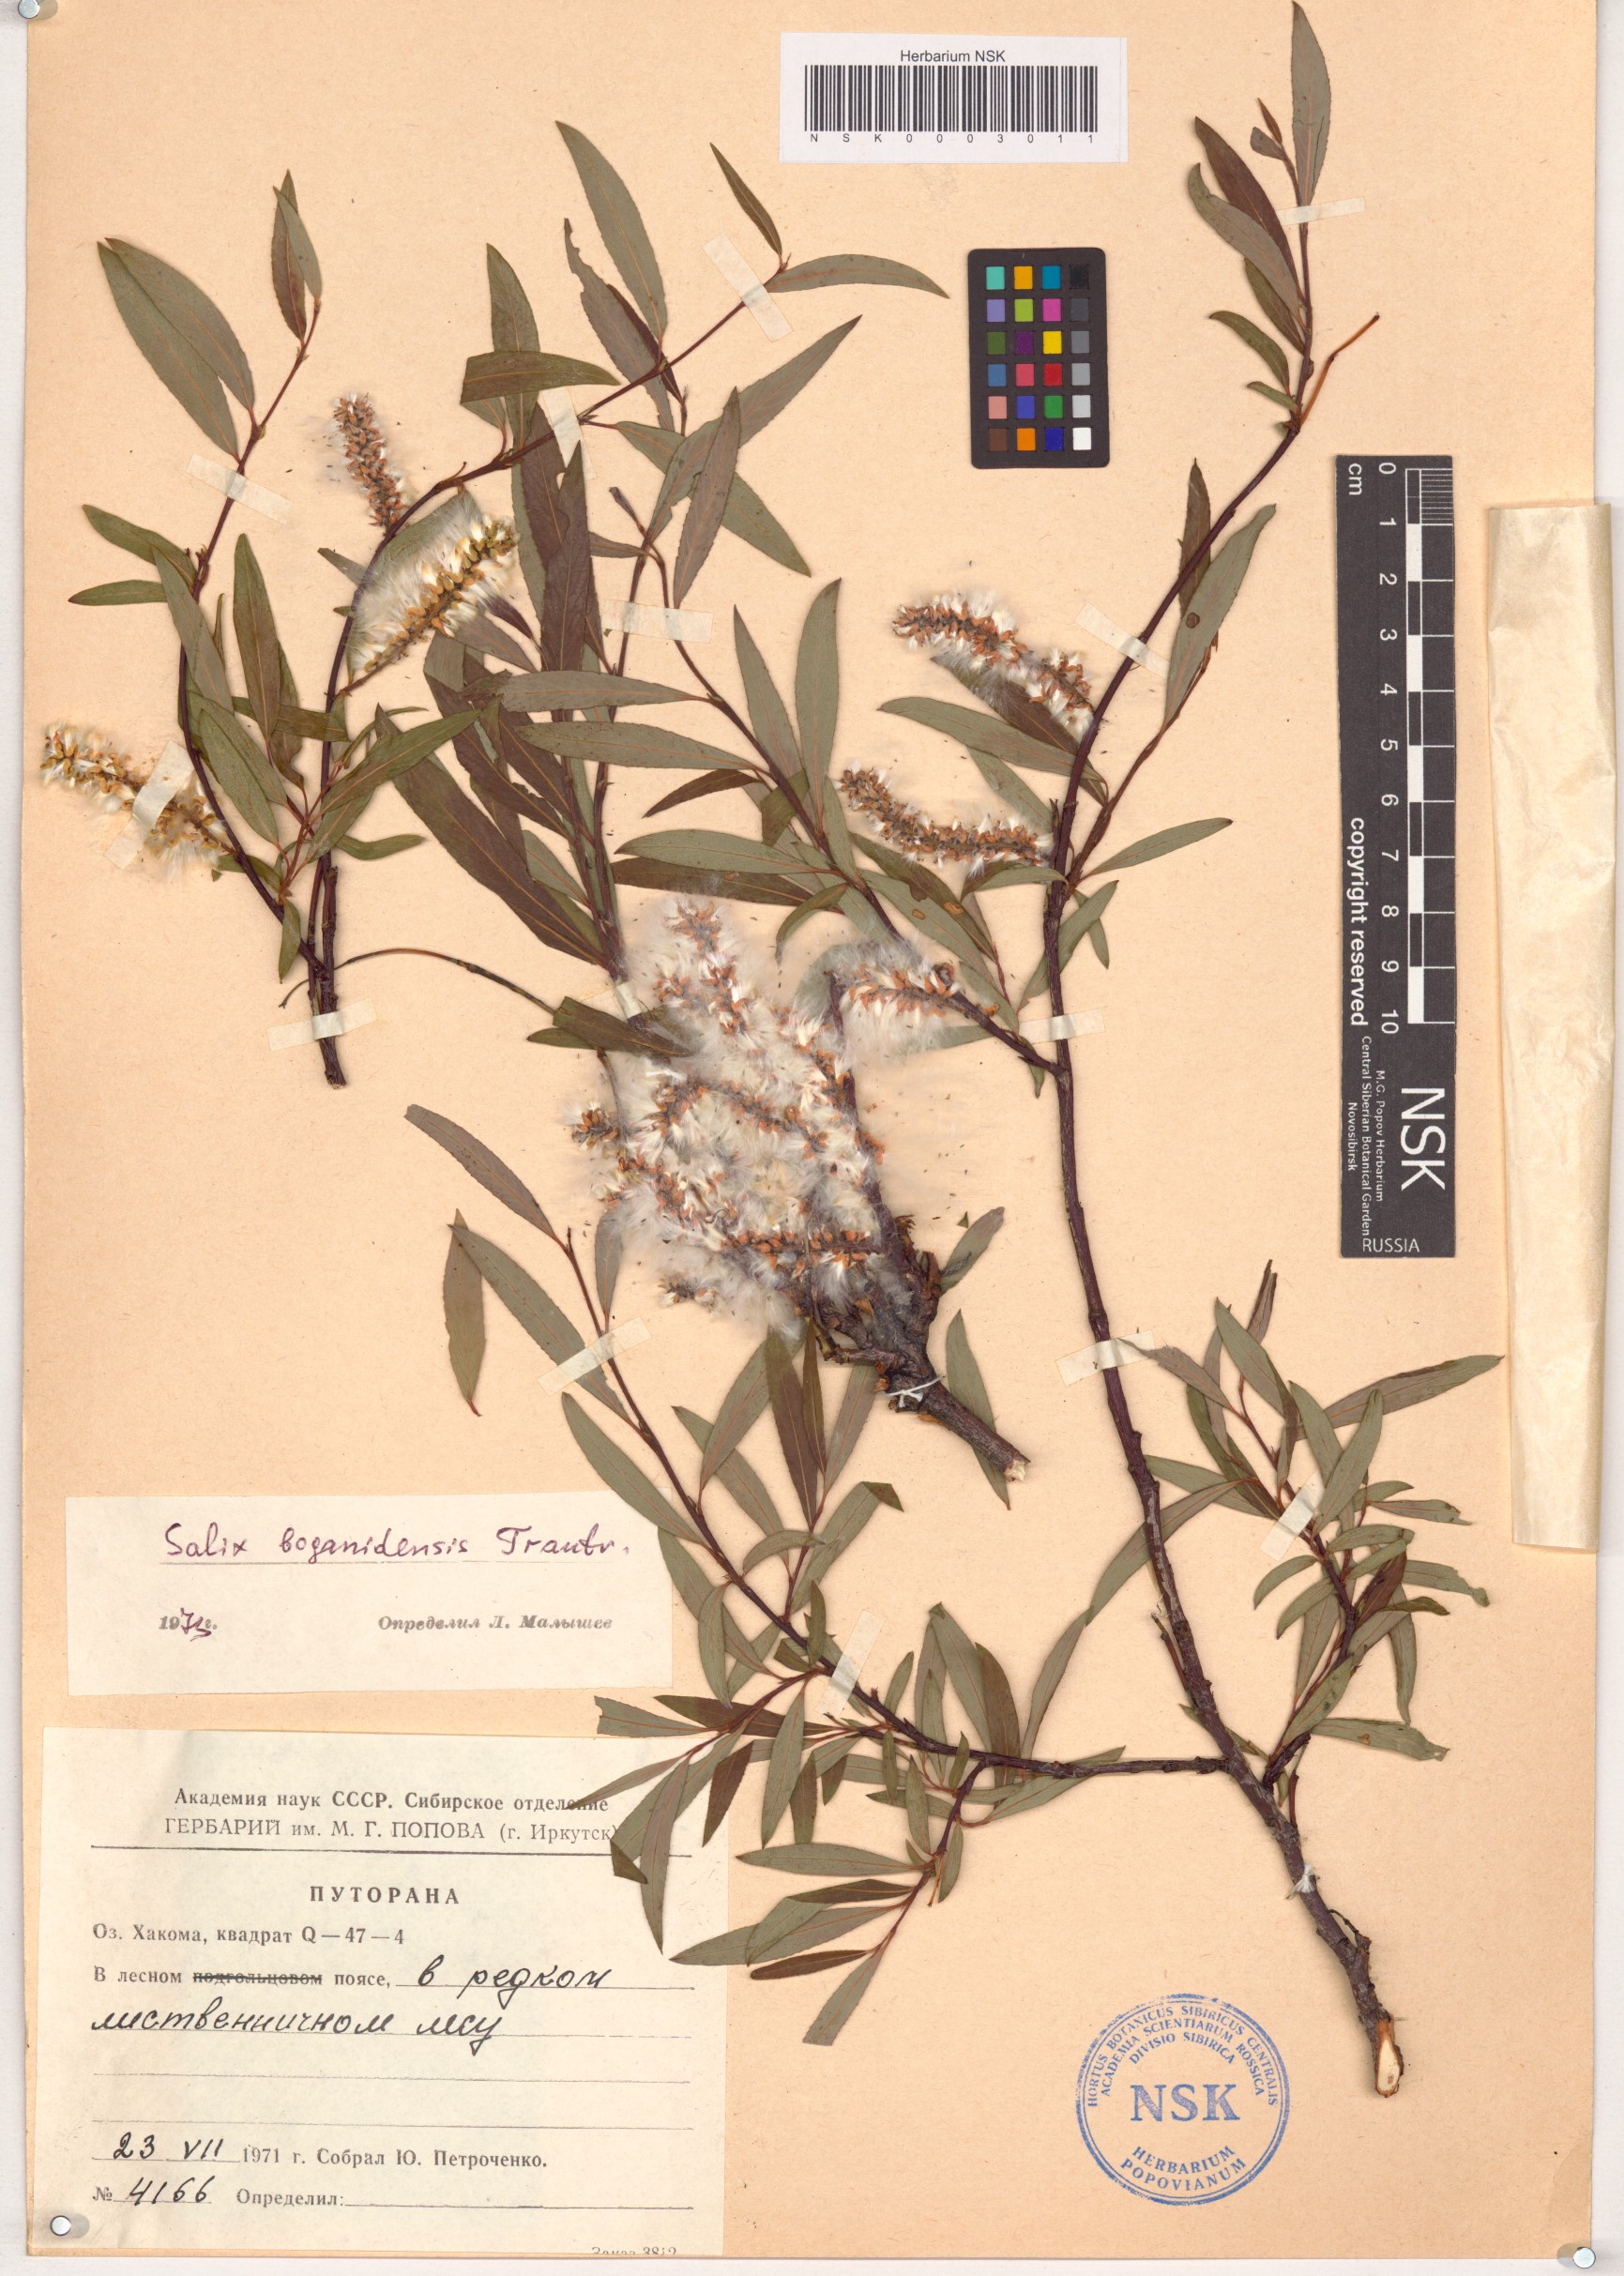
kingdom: Plantae
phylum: Tracheophyta
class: Magnoliopsida
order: Malpighiales
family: Salicaceae
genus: Salix
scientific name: Salix boganidensis
